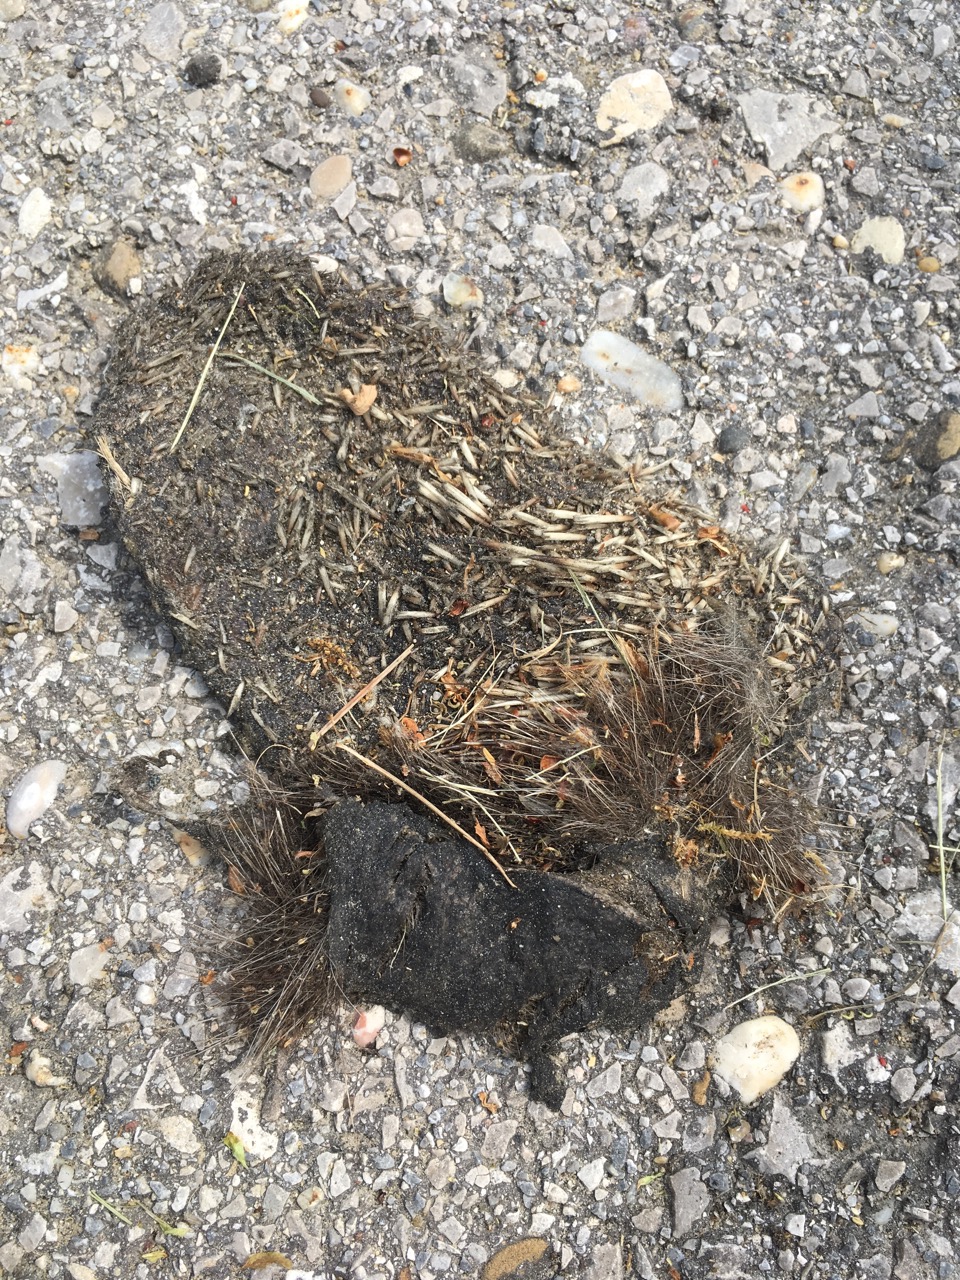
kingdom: Animalia
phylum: Chordata
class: Mammalia
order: Erinaceomorpha
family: Erinaceidae
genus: Erinaceus
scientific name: Erinaceus
